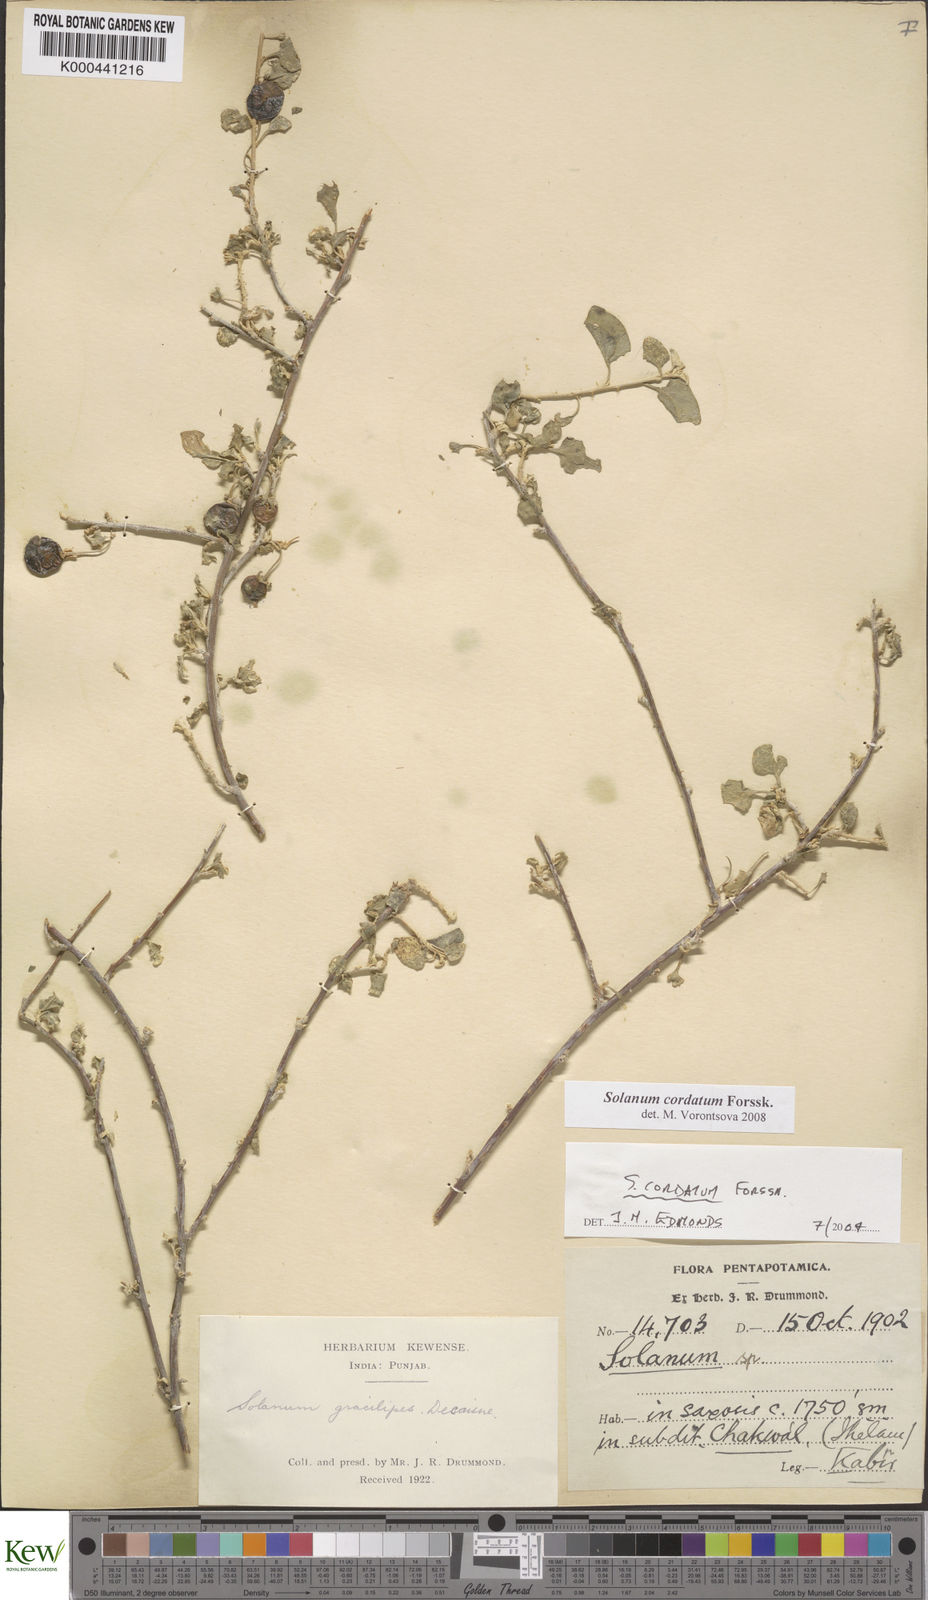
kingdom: Plantae
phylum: Tracheophyta
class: Magnoliopsida
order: Solanales
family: Solanaceae
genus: Solanum
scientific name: Solanum cordatum
